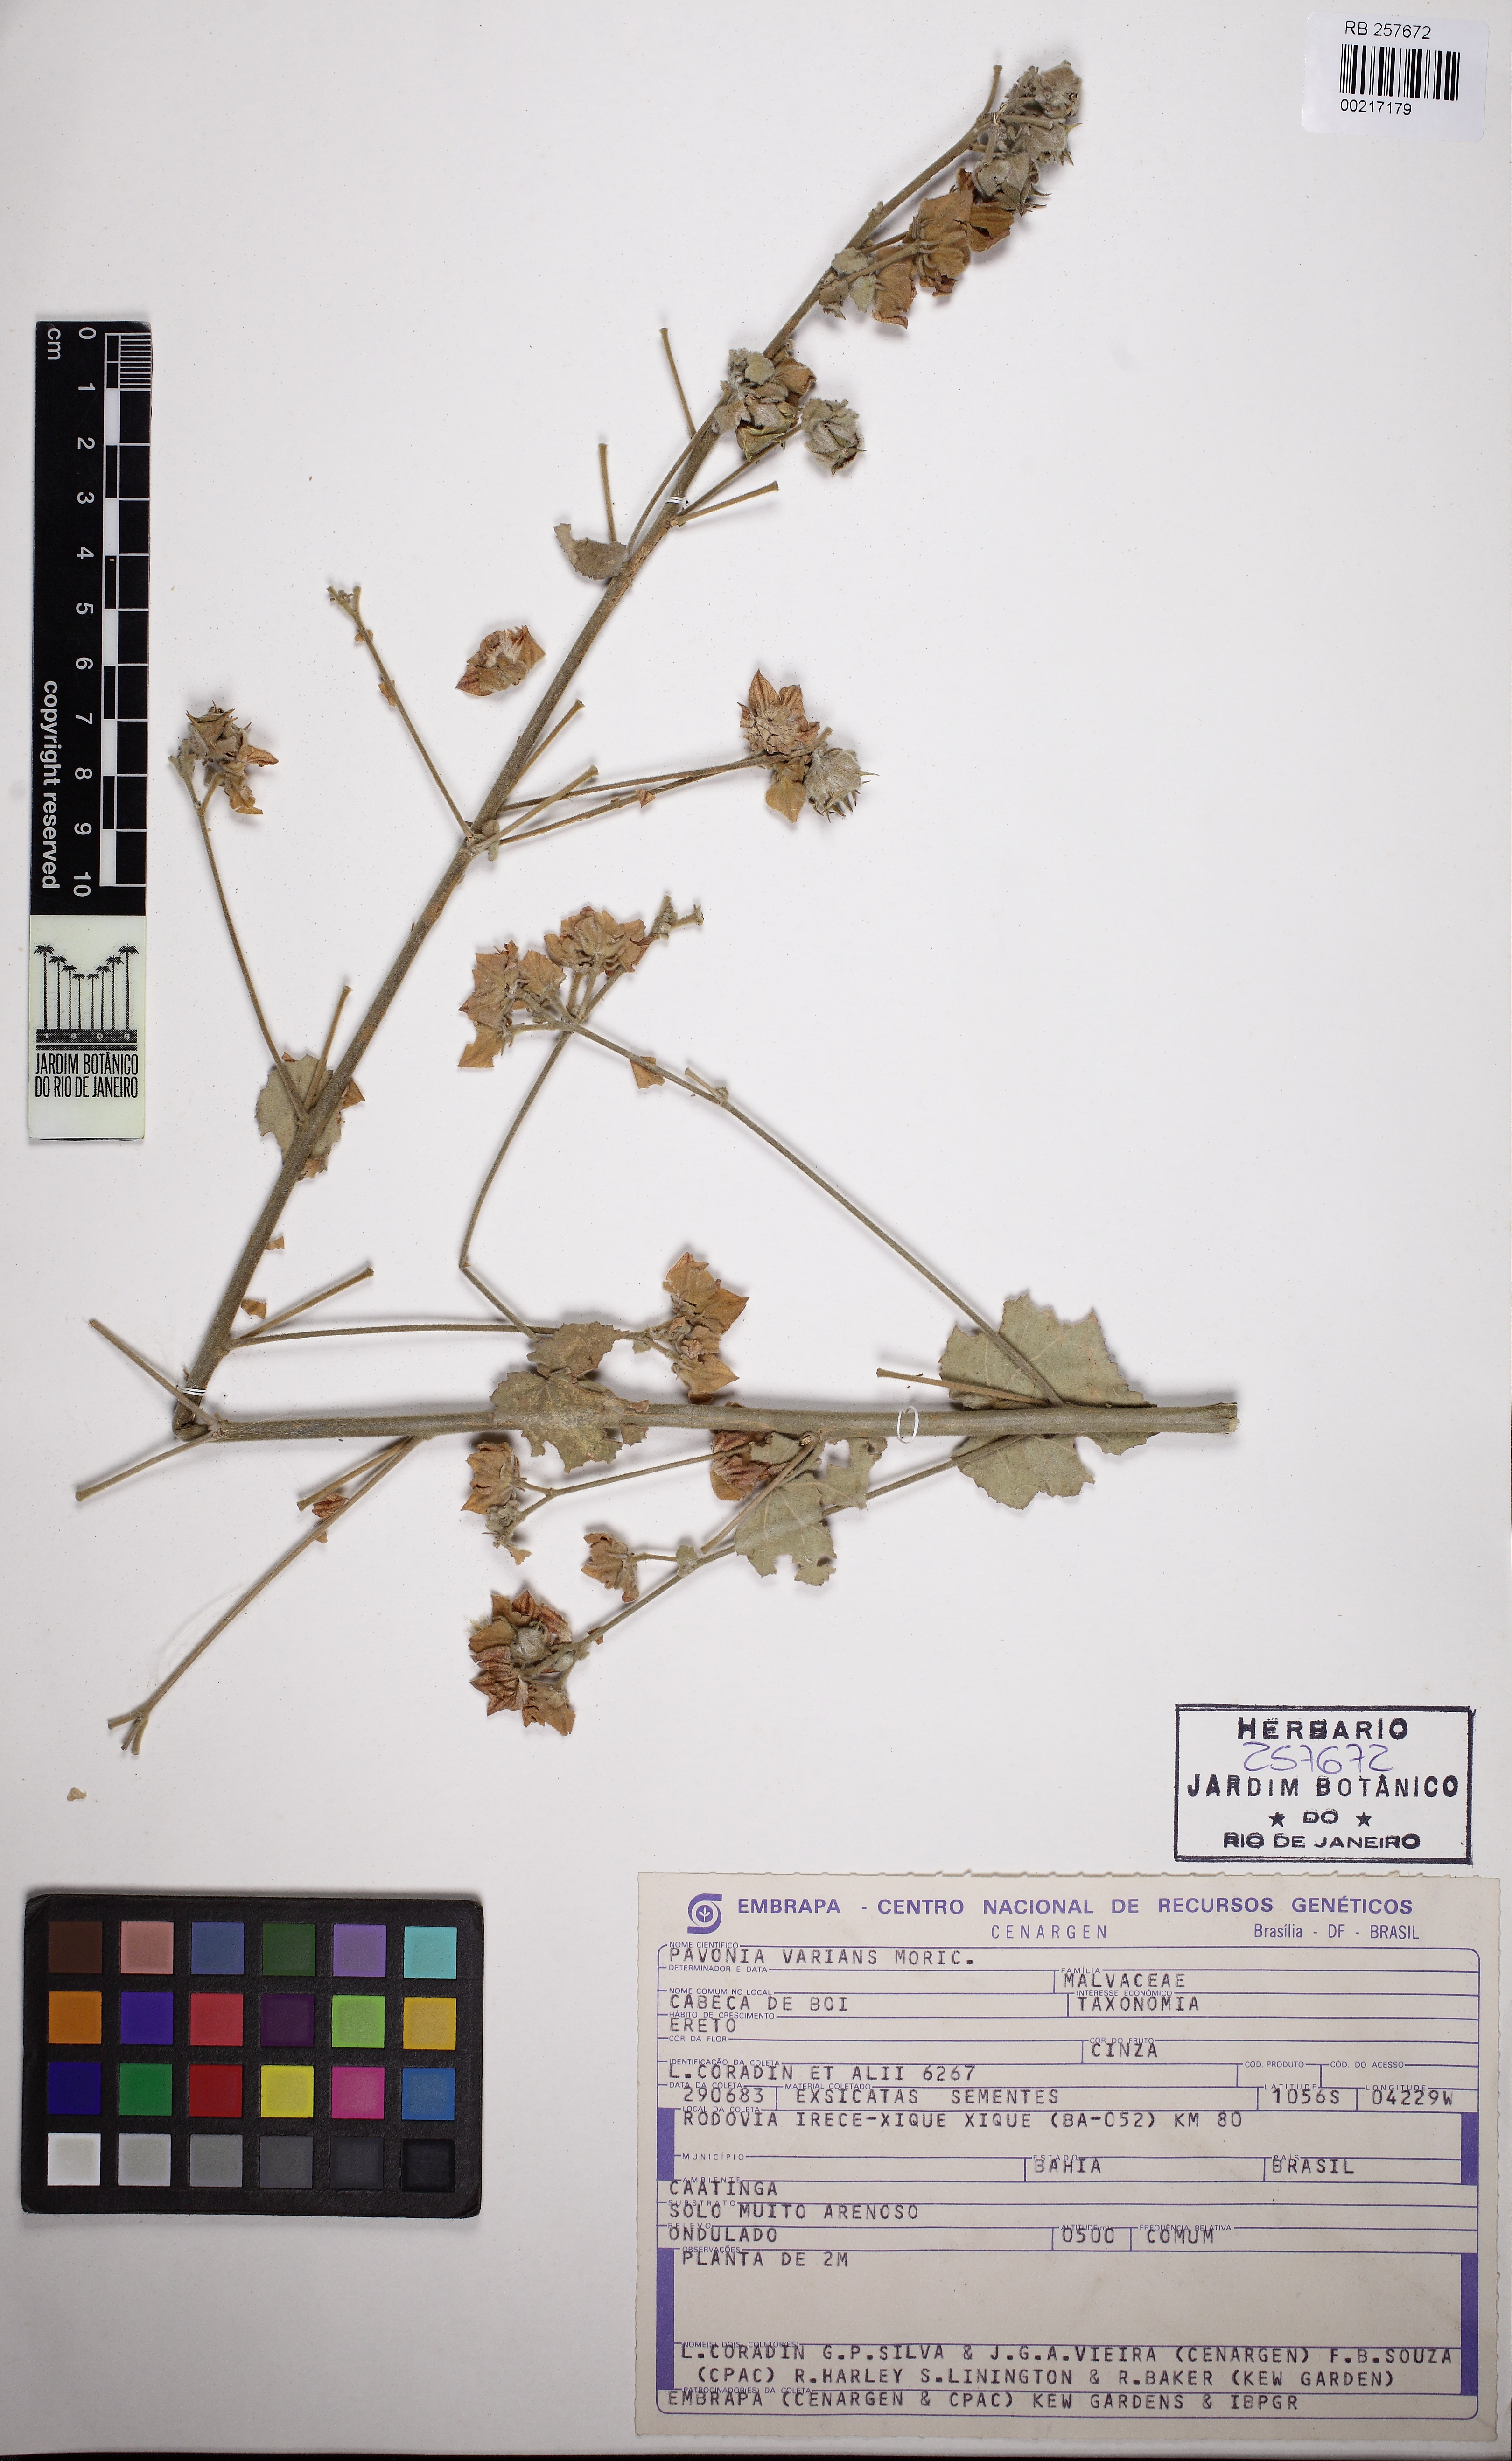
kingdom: Plantae
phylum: Tracheophyta
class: Magnoliopsida
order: Malvales
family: Malvaceae
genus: Pavonia
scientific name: Pavonia varians
